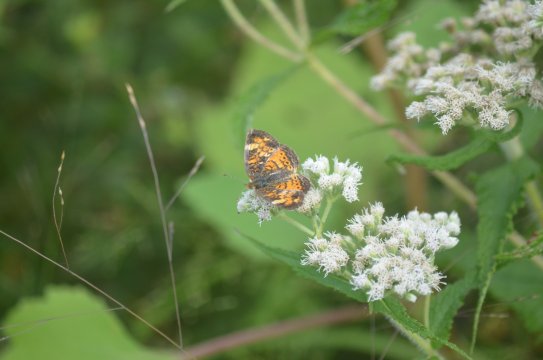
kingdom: Animalia
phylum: Arthropoda
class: Insecta
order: Lepidoptera
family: Nymphalidae
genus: Phyciodes
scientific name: Phyciodes tharos
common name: Northern Crescent
